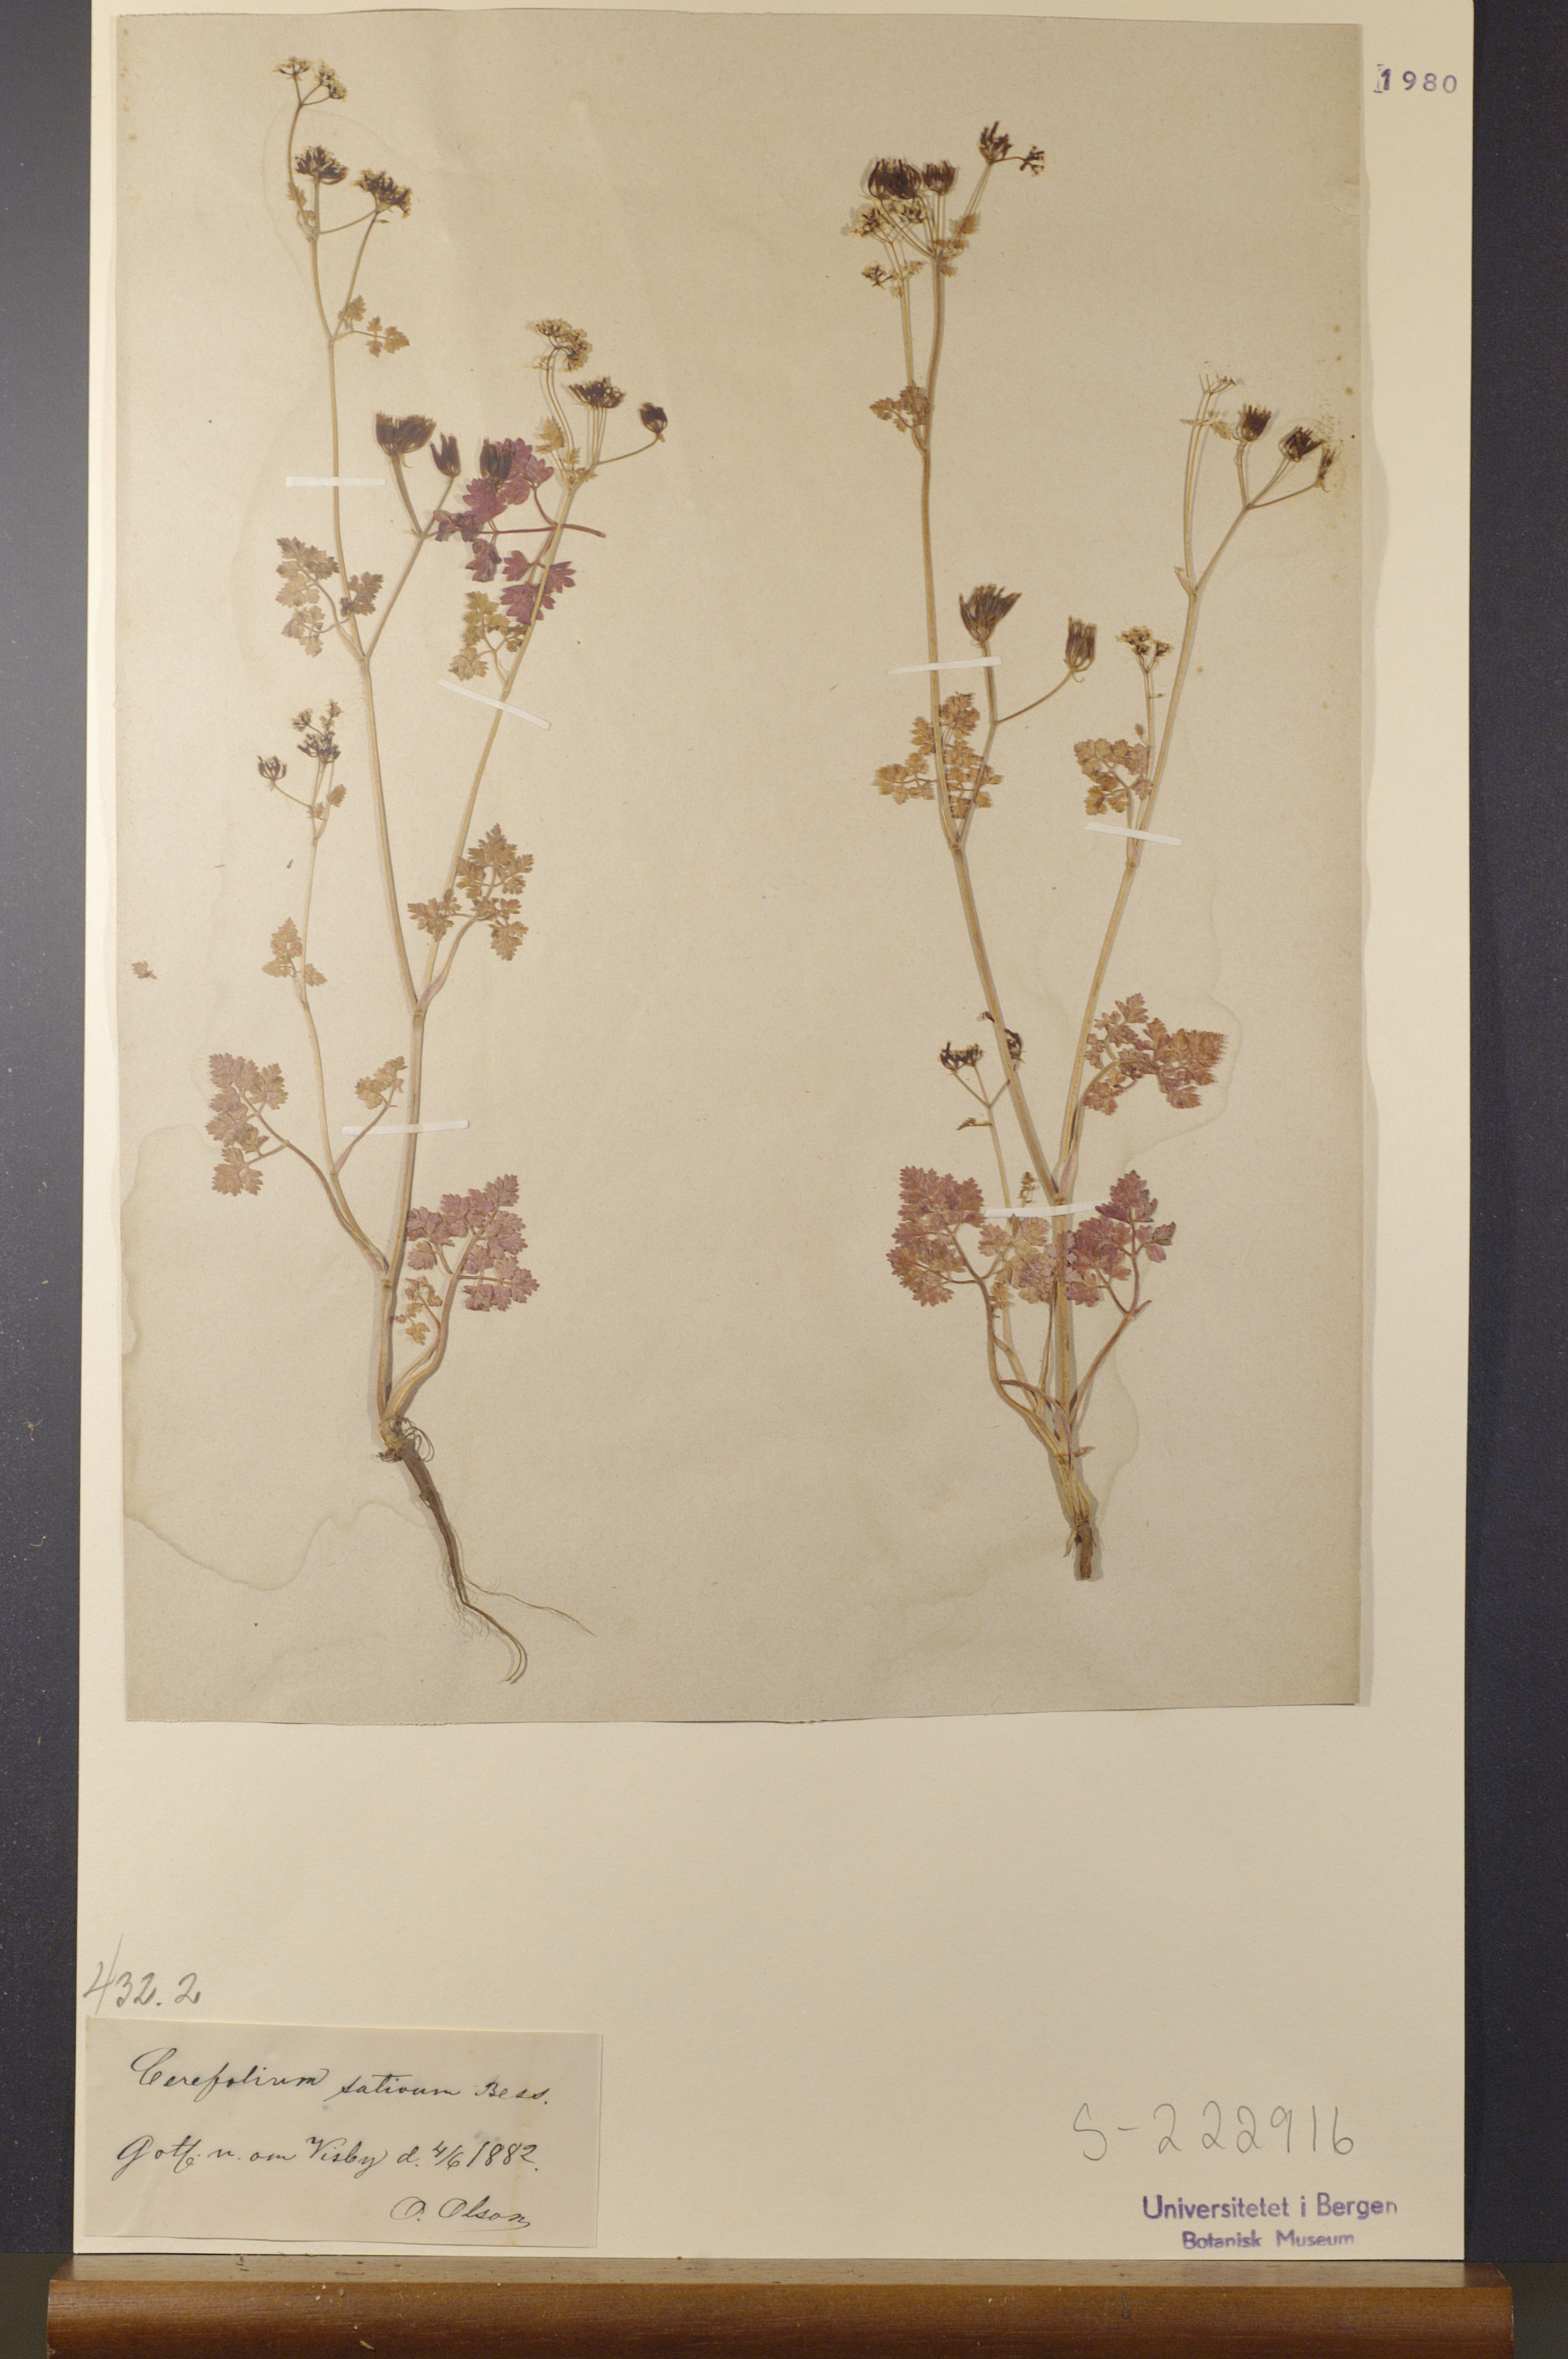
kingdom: Plantae
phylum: Tracheophyta
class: Magnoliopsida
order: Apiales
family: Apiaceae
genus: Anthriscus
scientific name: Anthriscus cerefolium
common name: Garden chervil
